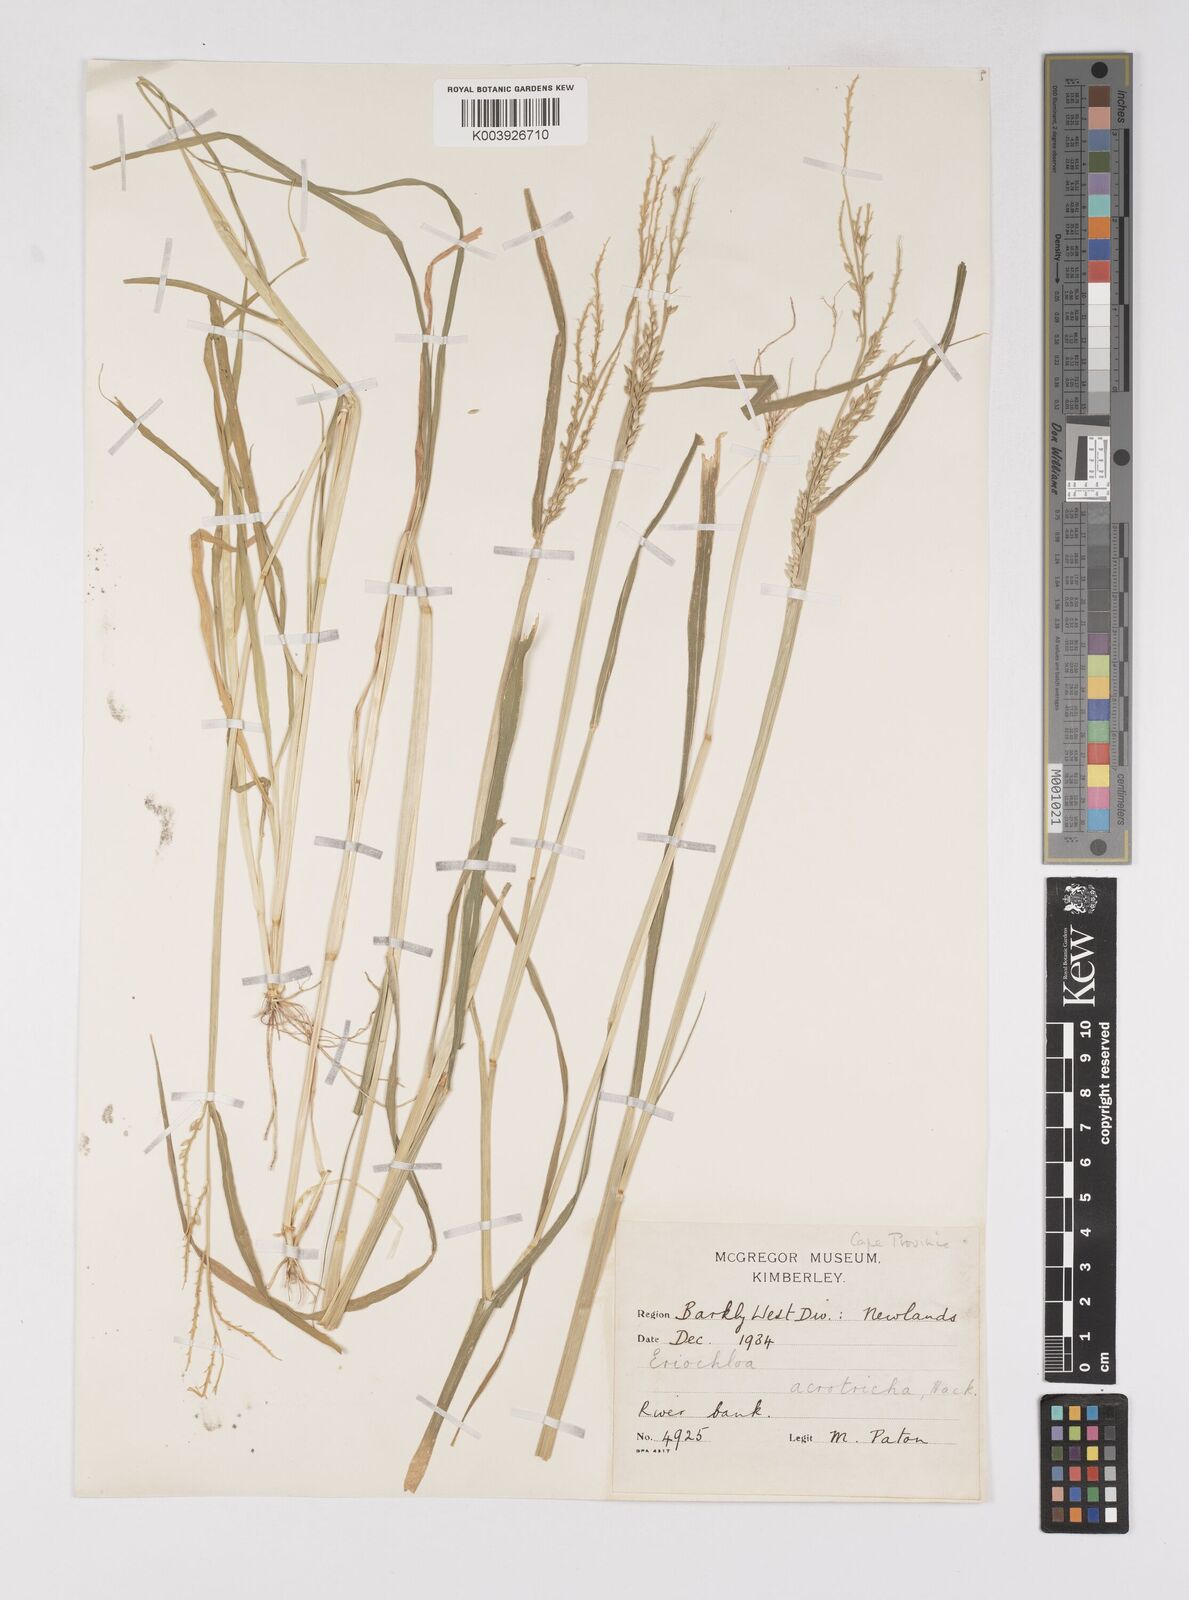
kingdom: Plantae
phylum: Tracheophyta
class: Liliopsida
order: Poales
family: Poaceae
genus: Eriochloa
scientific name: Eriochloa barbatus
